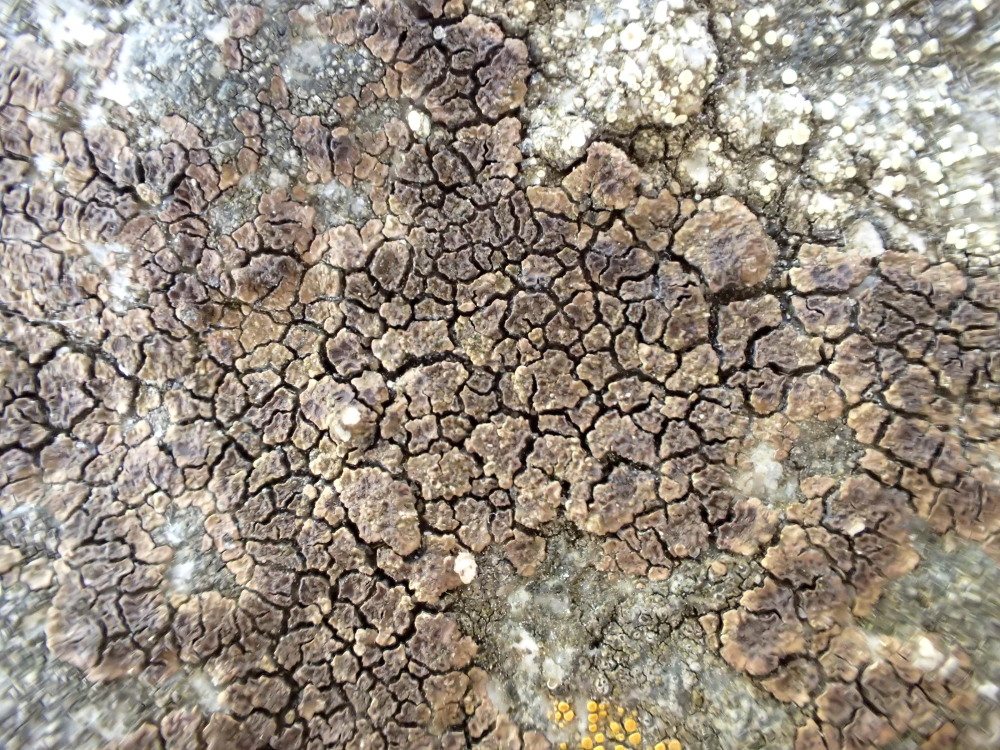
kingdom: Fungi
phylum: Ascomycota
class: Lecanoromycetes
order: Acarosporales
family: Acarosporaceae
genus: Acarospora
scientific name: Acarospora fuscata
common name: brun småsporelav
